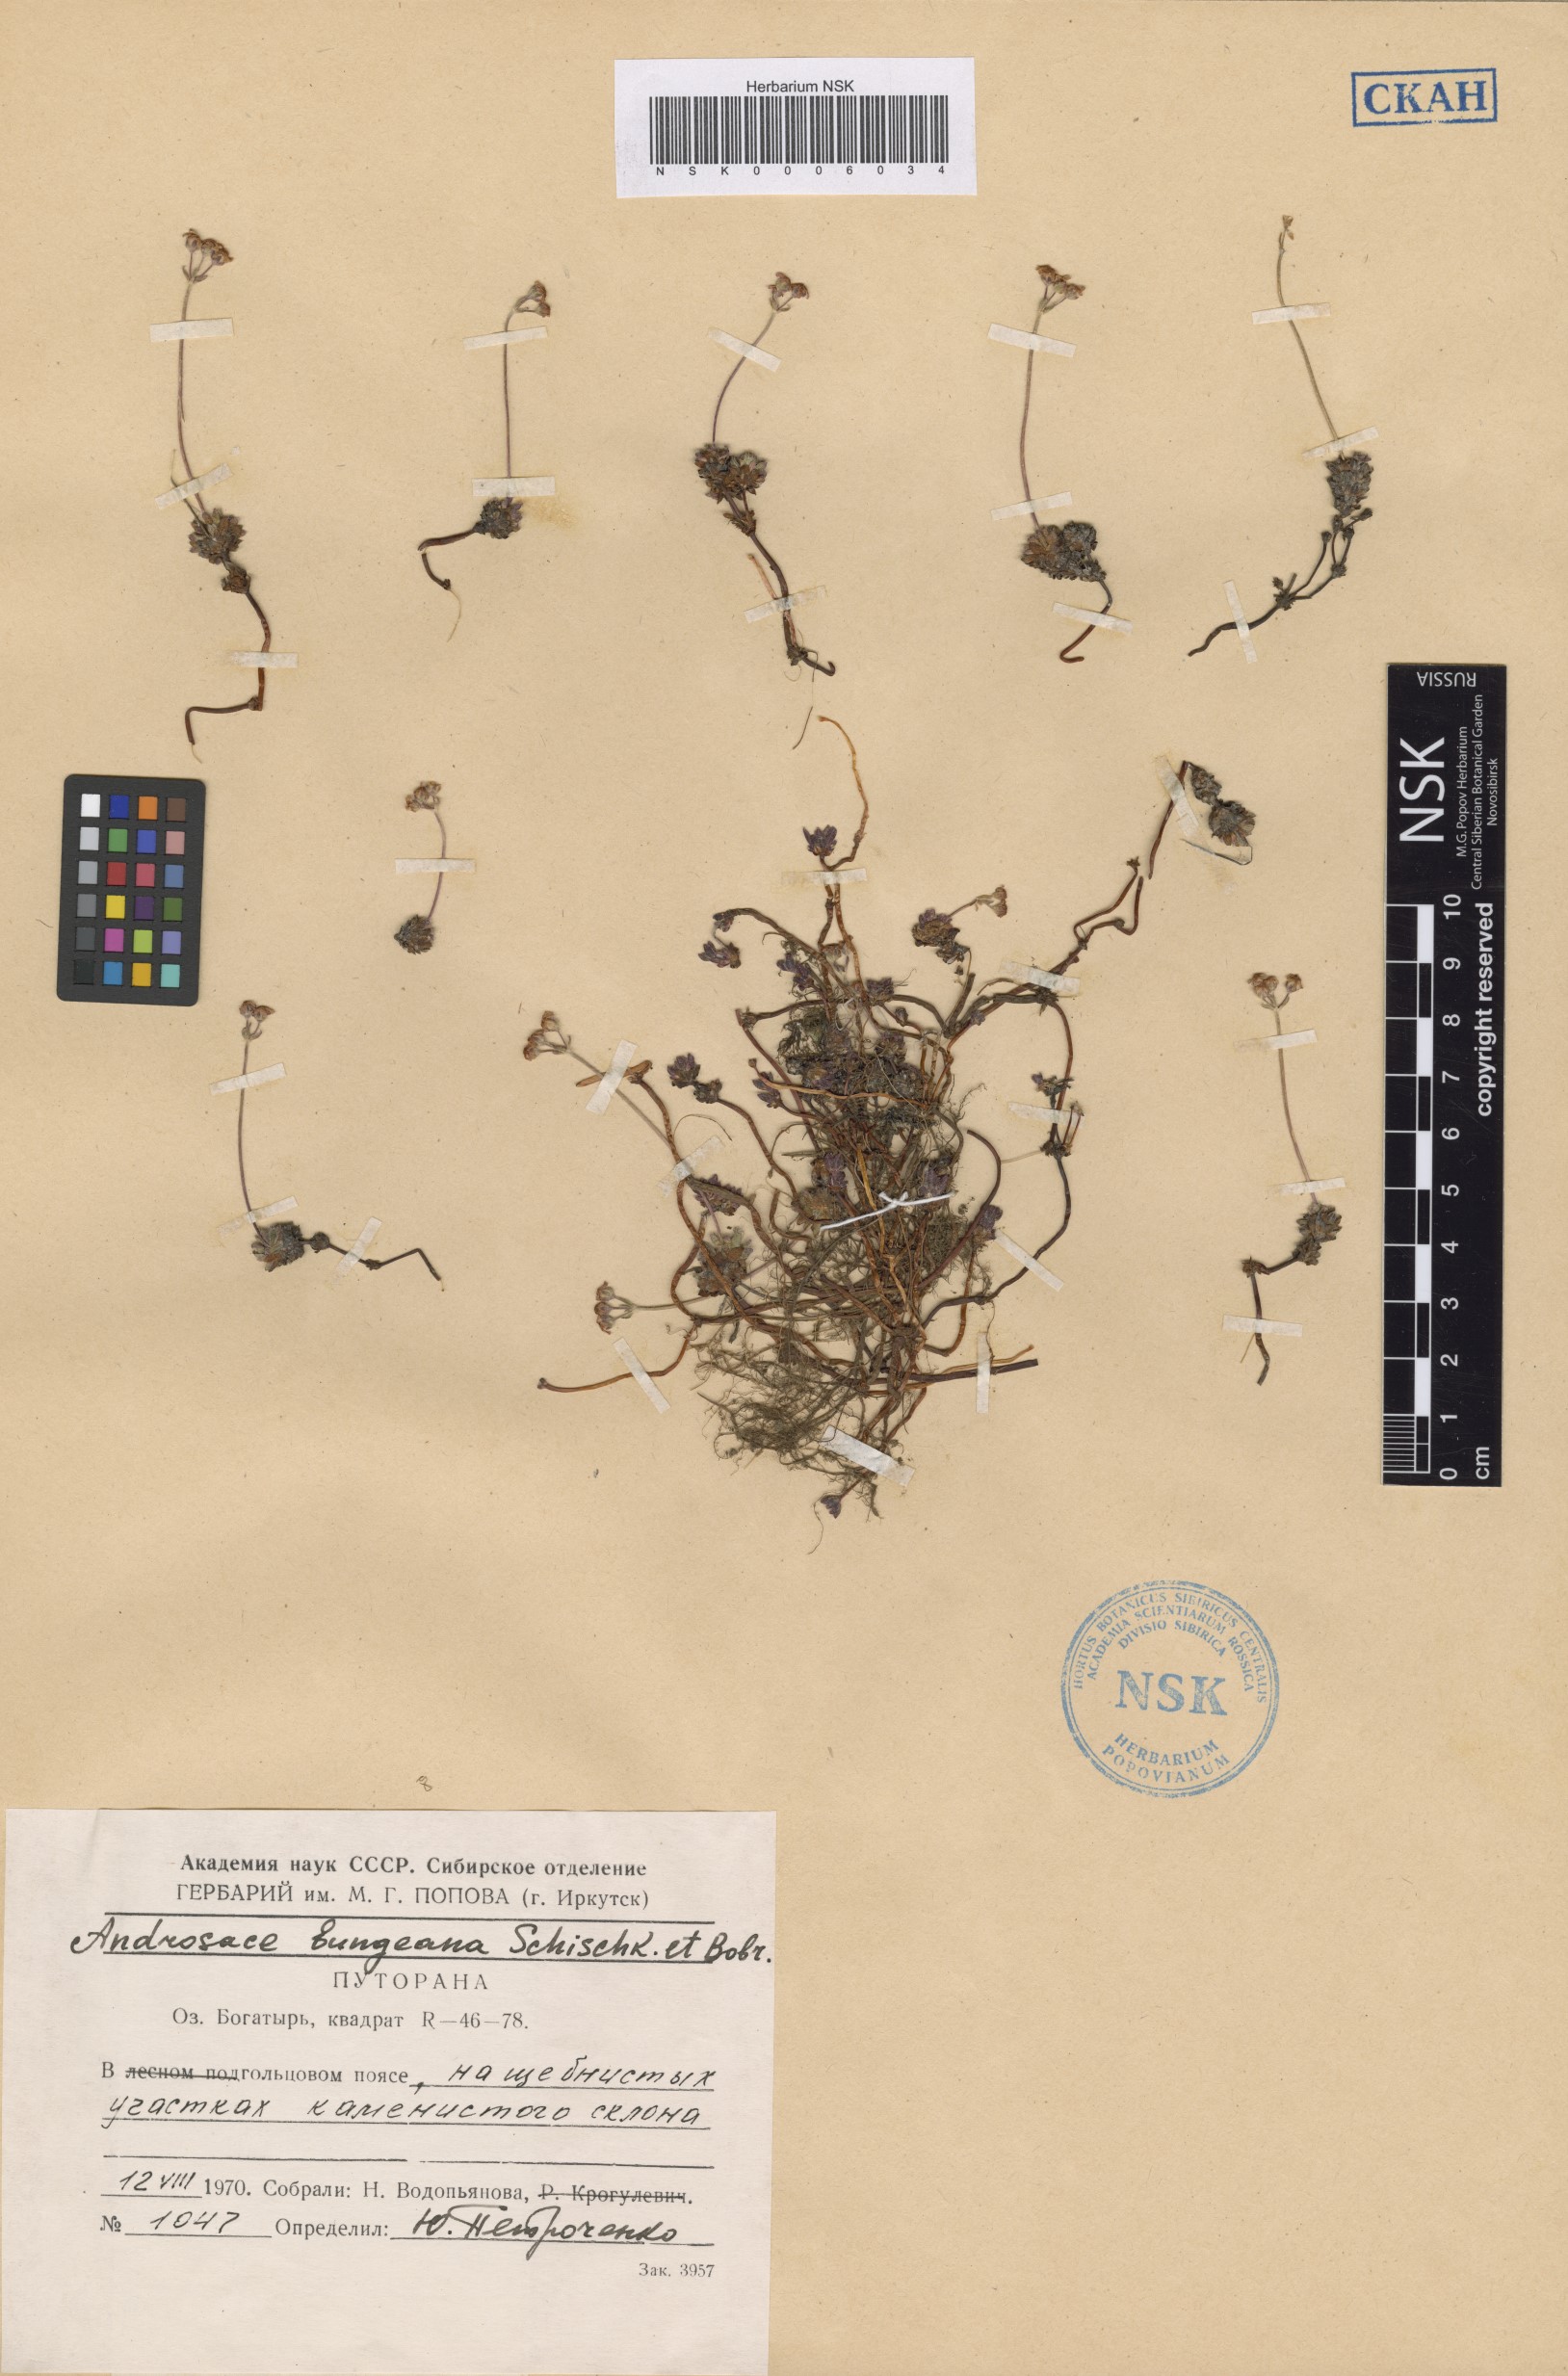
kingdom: Plantae
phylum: Tracheophyta
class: Magnoliopsida
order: Ericales
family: Primulaceae
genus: Androsace
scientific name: Androsace bungeana
